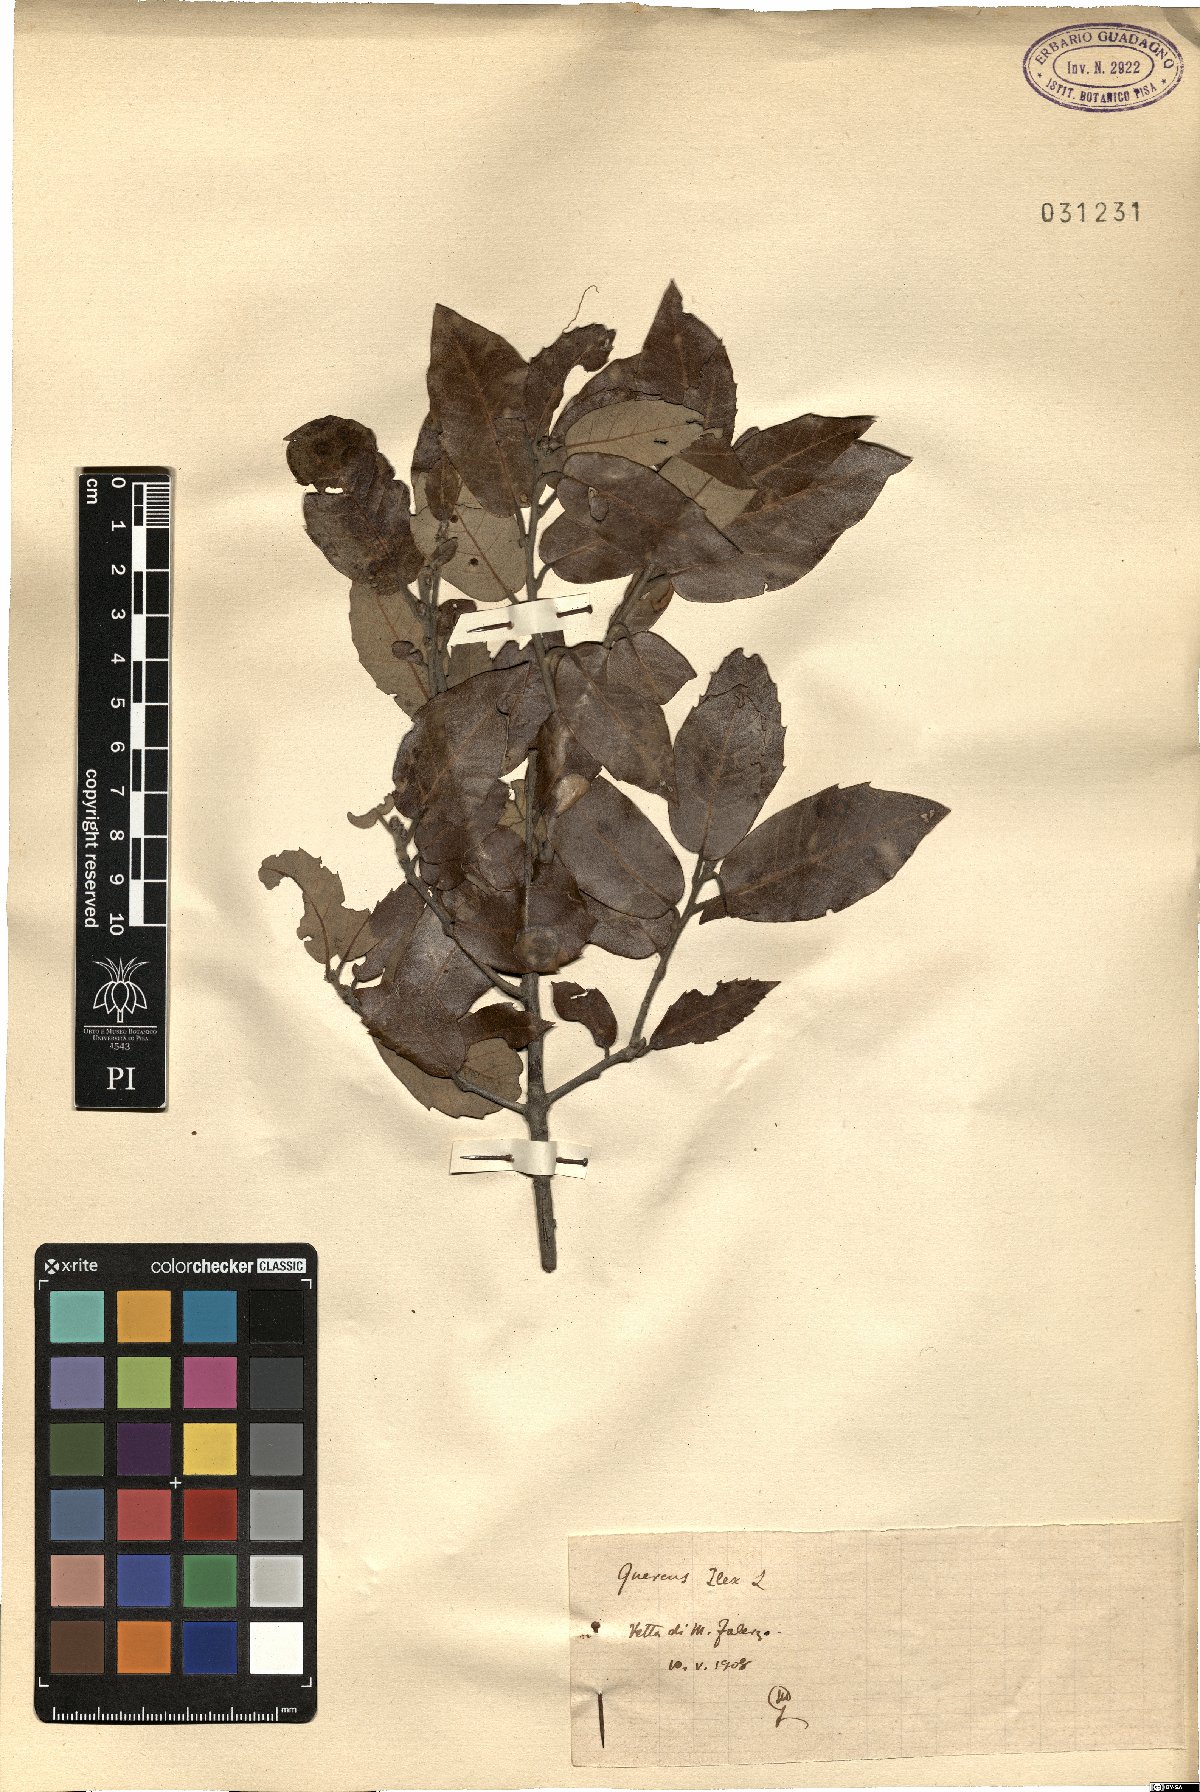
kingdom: Plantae
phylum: Tracheophyta
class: Magnoliopsida
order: Fagales
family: Fagaceae
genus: Quercus
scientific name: Quercus ilex
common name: Evergreen oak
